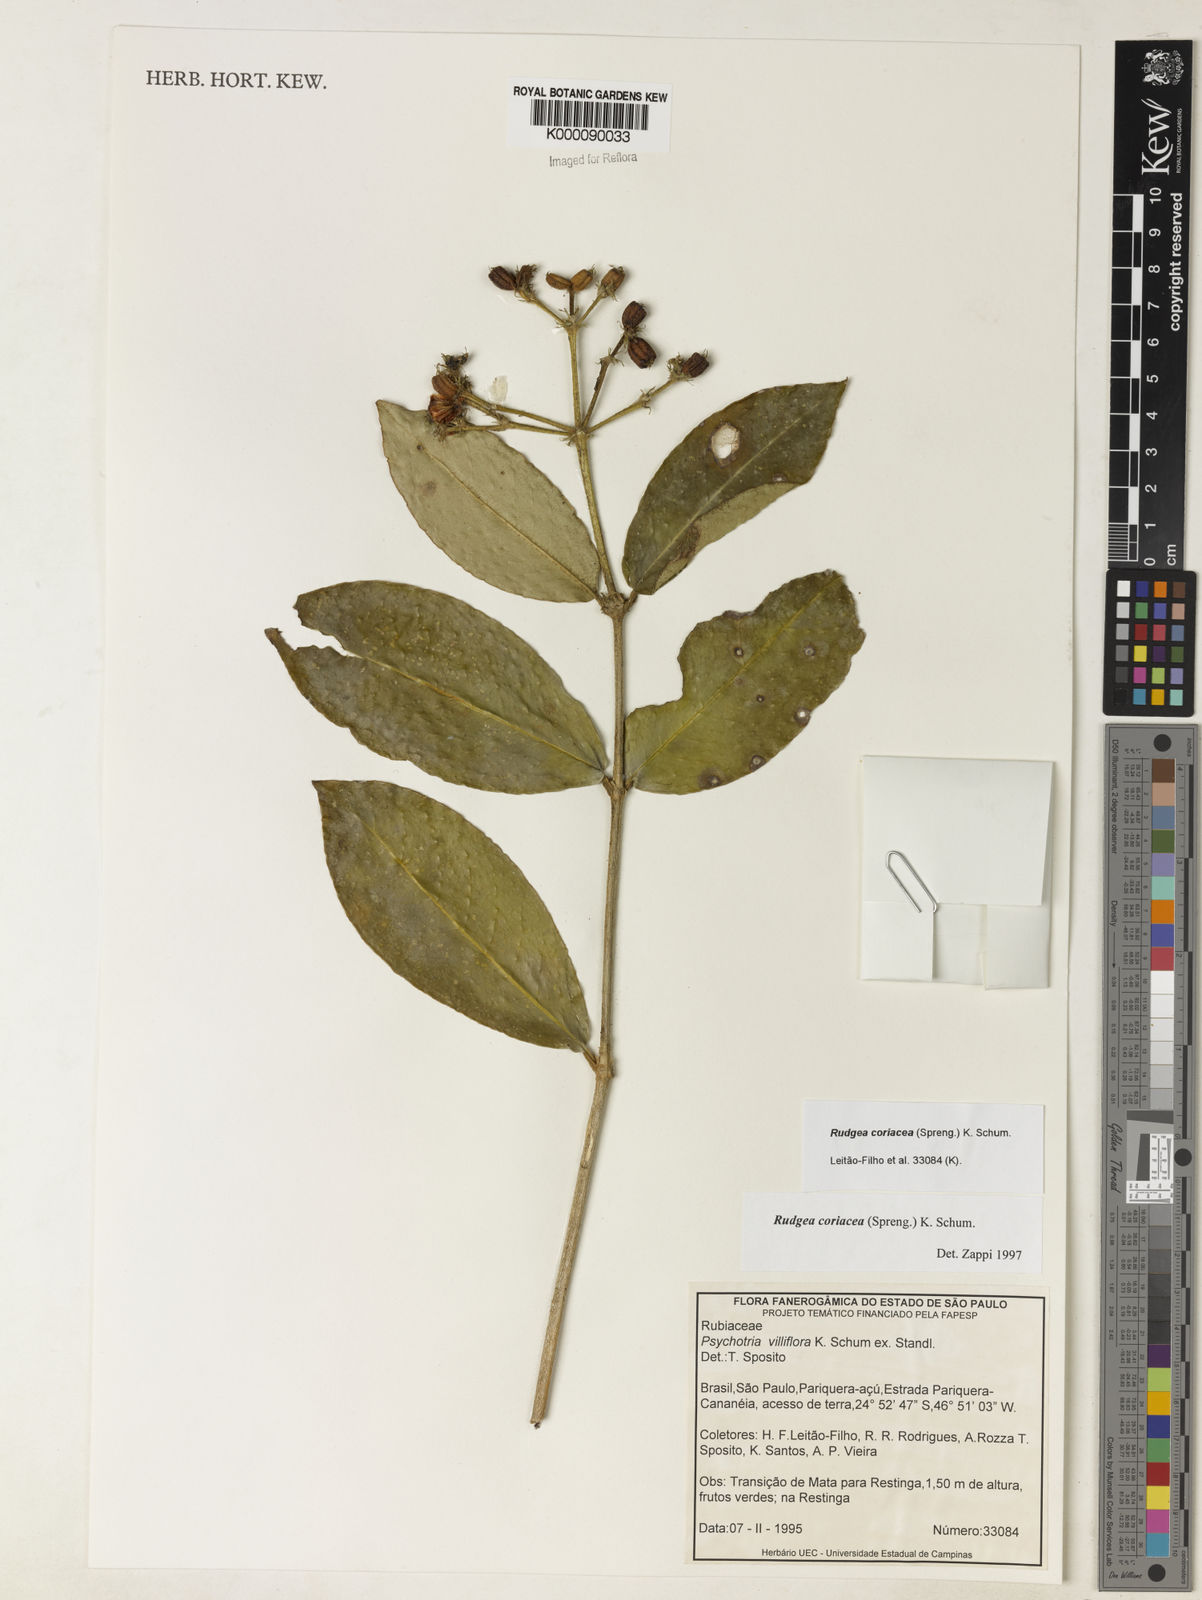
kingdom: Plantae
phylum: Tracheophyta
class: Magnoliopsida
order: Gentianales
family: Rubiaceae
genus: Rudgea
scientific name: Rudgea coriacea
